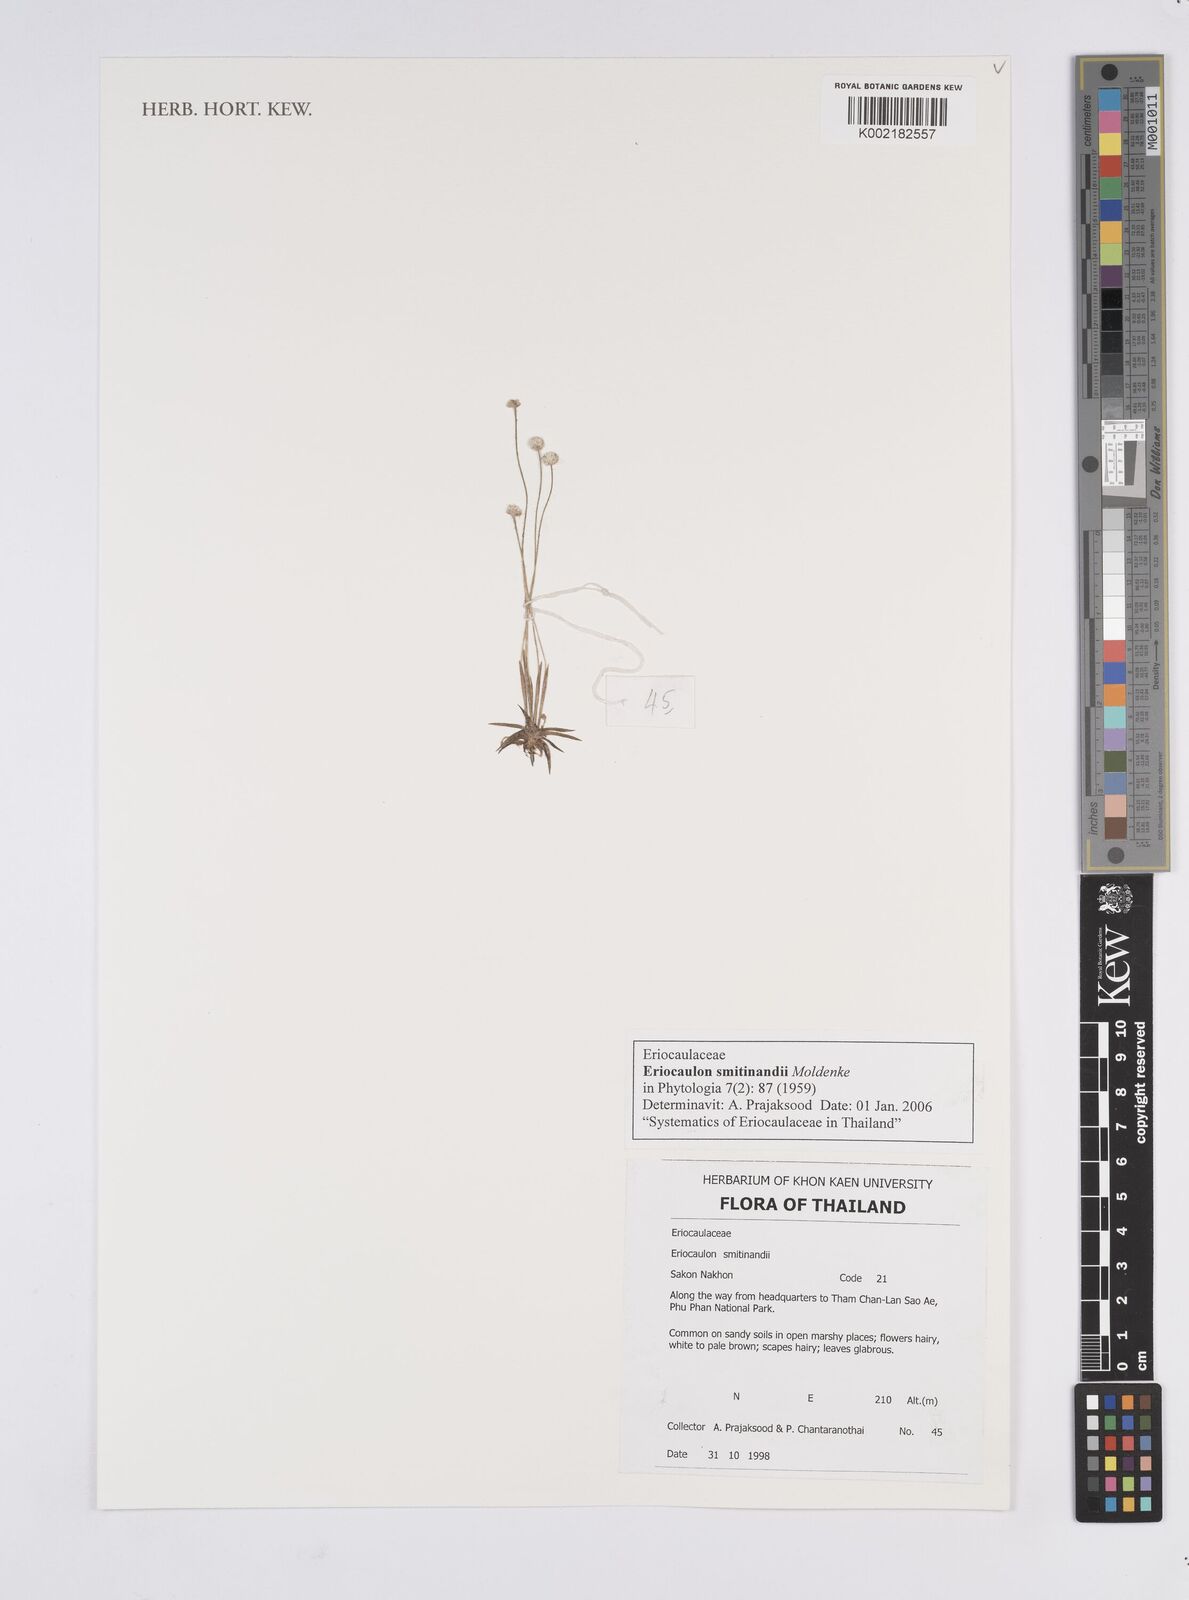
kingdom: Plantae
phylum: Tracheophyta
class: Liliopsida
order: Poales
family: Eriocaulaceae
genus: Eriocaulon
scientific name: Eriocaulon smitinandii
